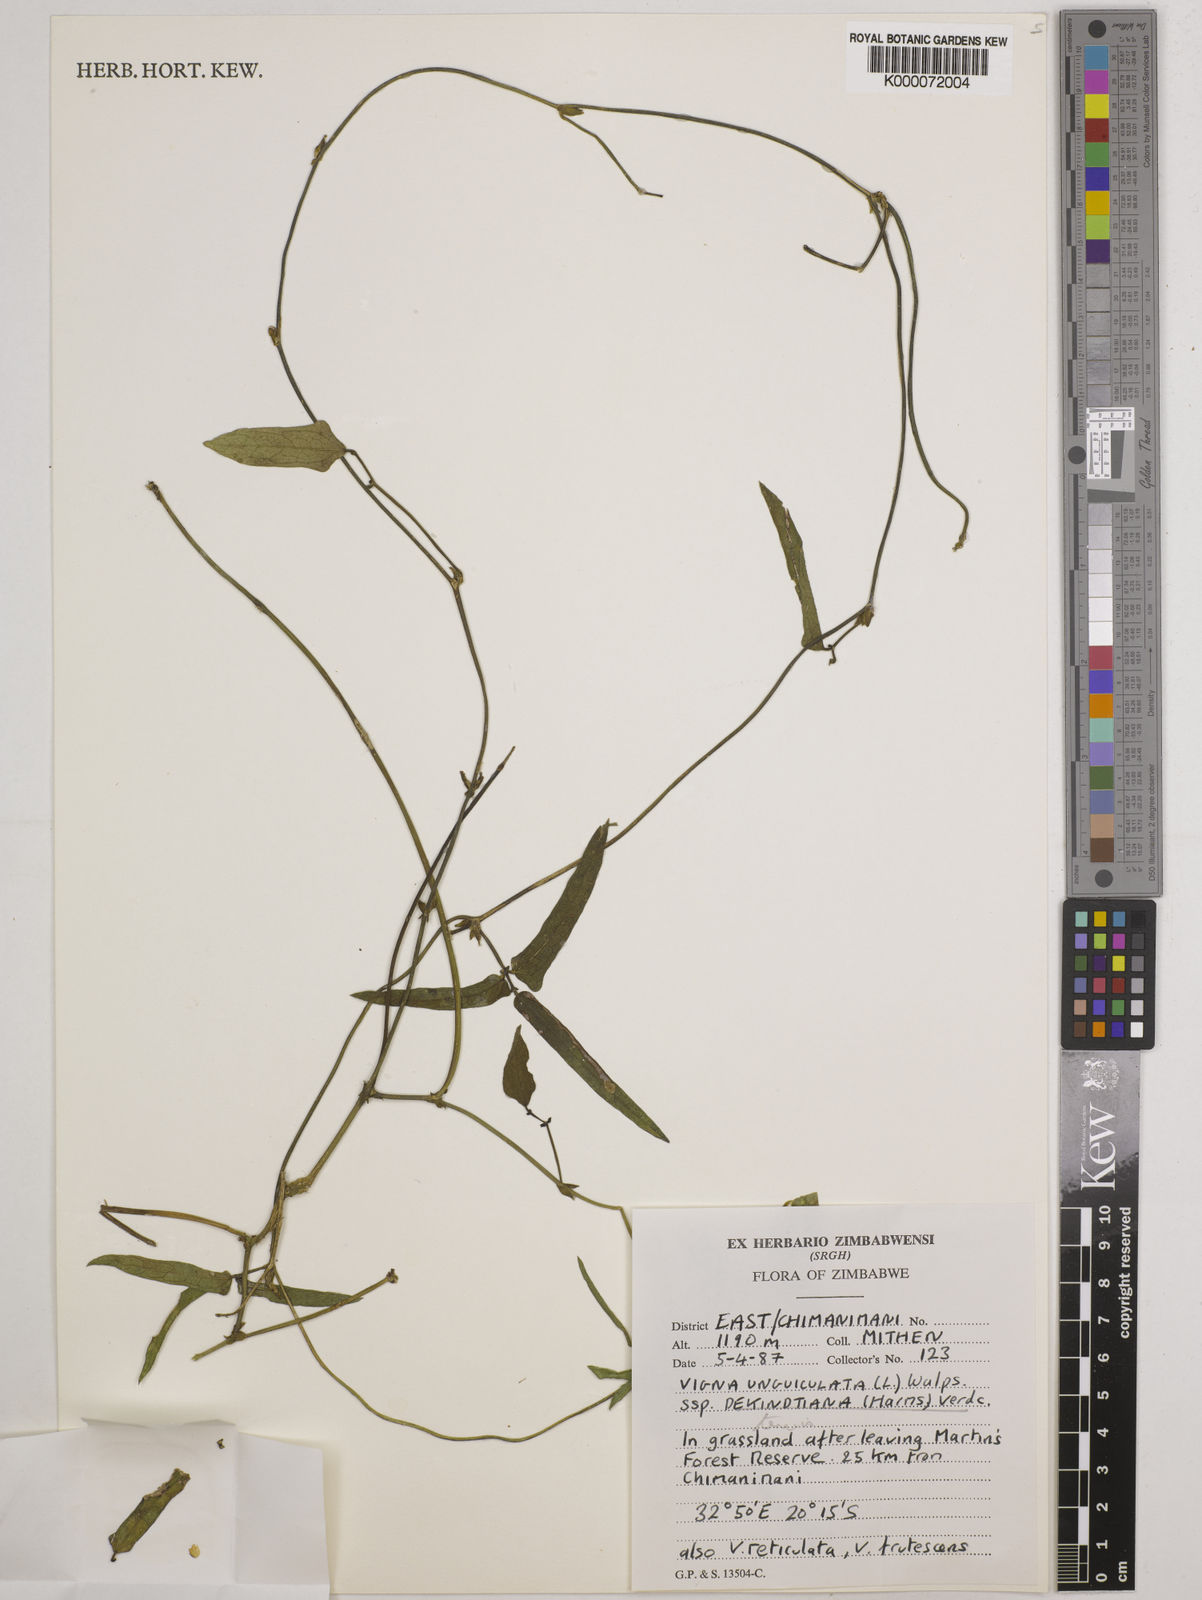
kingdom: Plantae
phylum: Tracheophyta
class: Magnoliopsida
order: Fabales
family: Fabaceae
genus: Vigna
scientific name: Vigna unguiculata
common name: Cowpea
